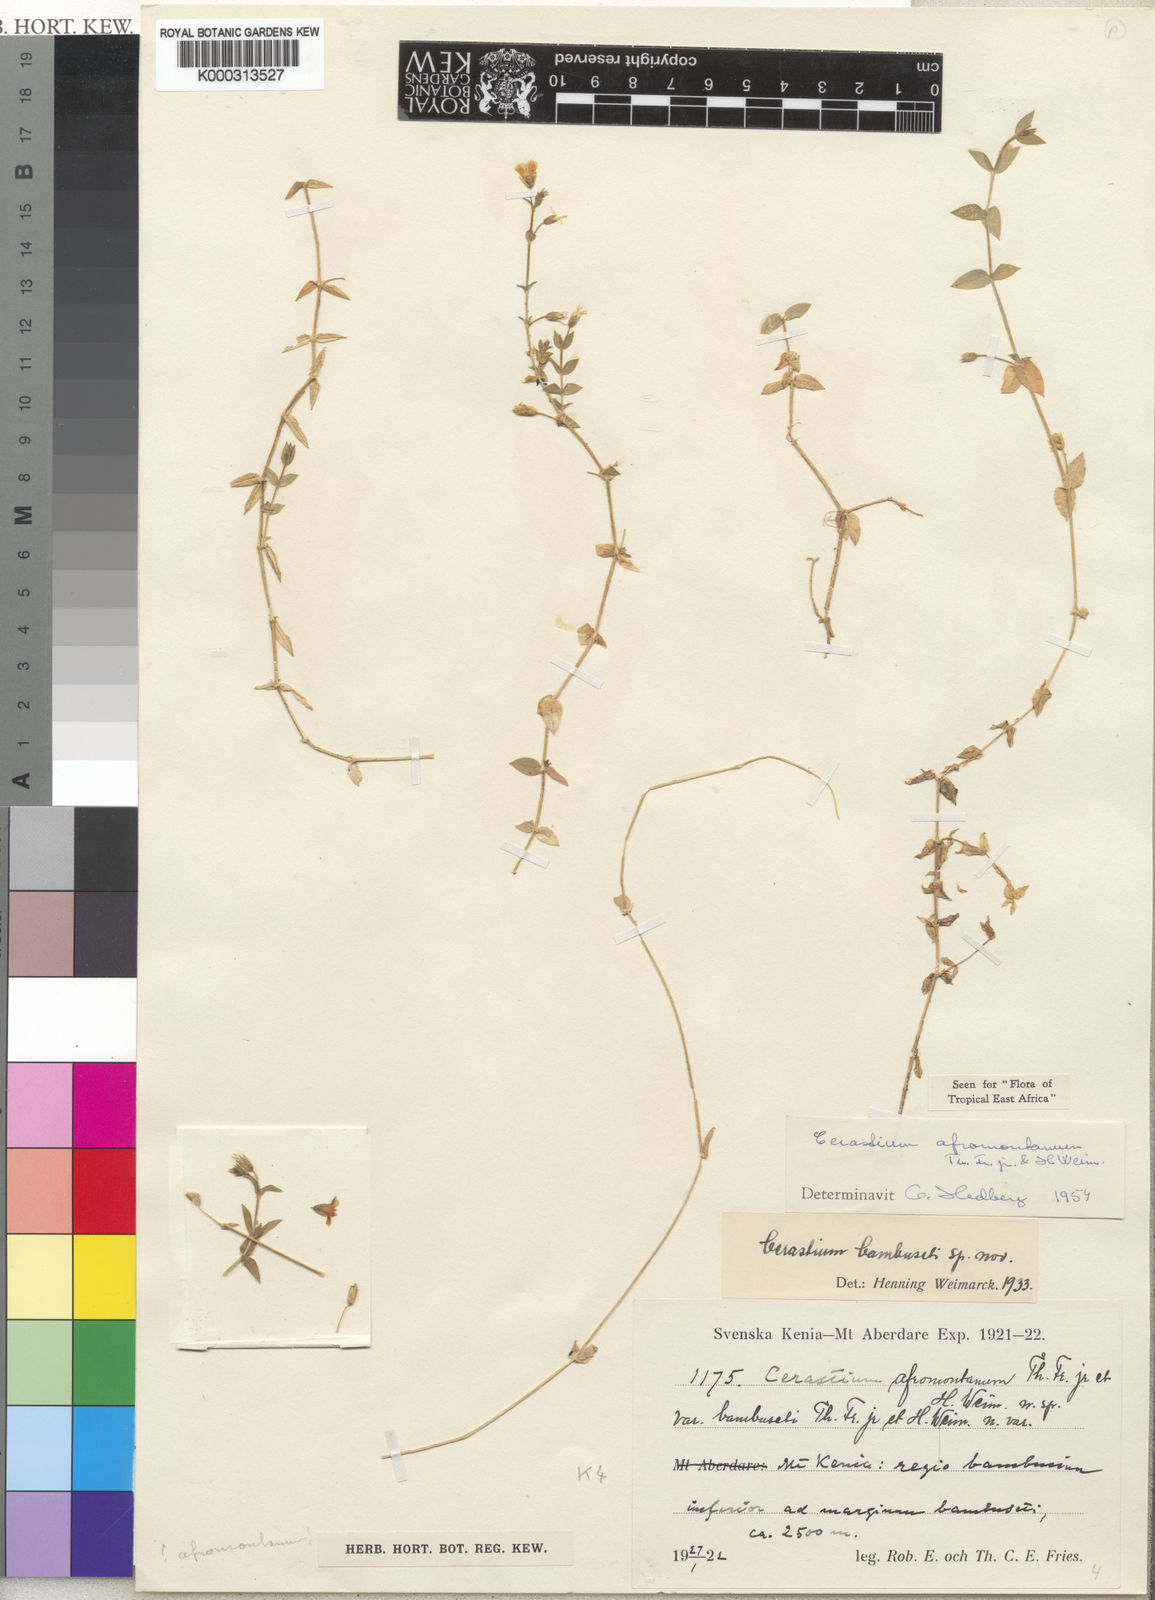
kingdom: Plantae
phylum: Tracheophyta
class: Magnoliopsida
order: Caryophyllales
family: Caryophyllaceae
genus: Cerastium
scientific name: Cerastium afromontanum
